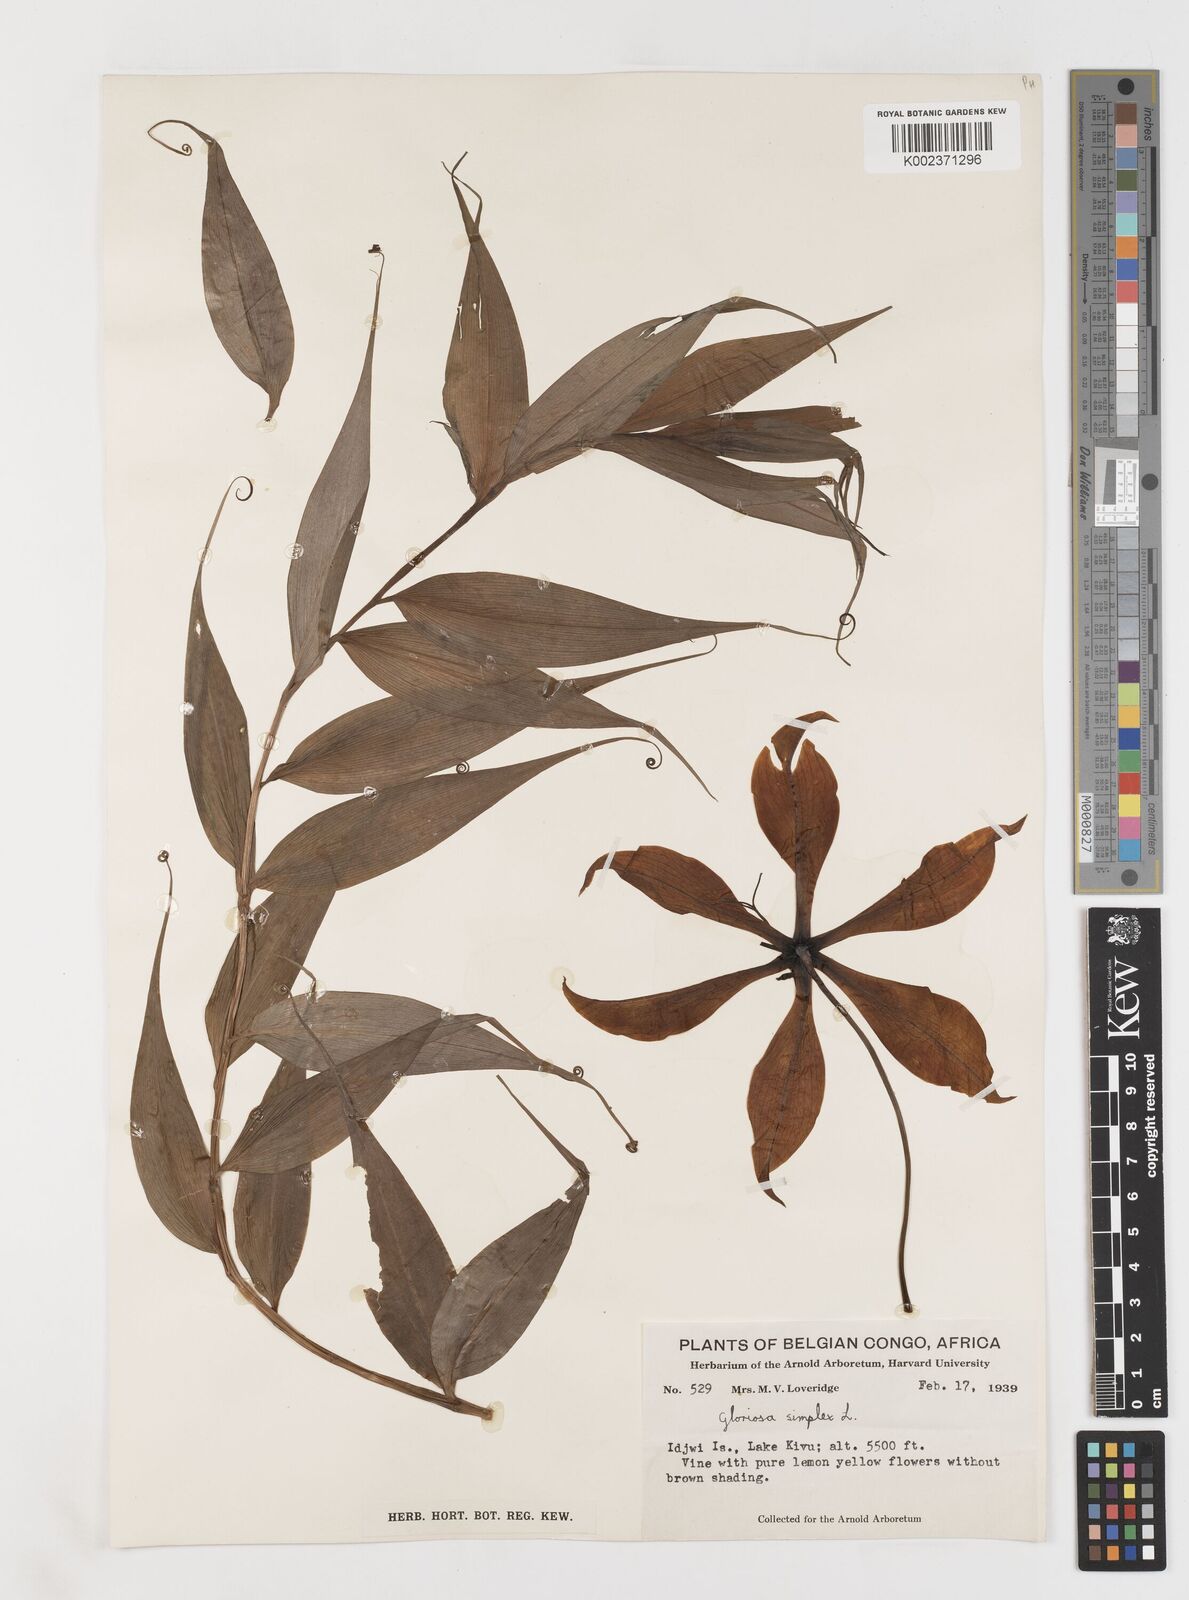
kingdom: Plantae
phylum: Tracheophyta
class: Liliopsida
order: Liliales
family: Colchicaceae
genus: Gloriosa
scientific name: Gloriosa simplex
